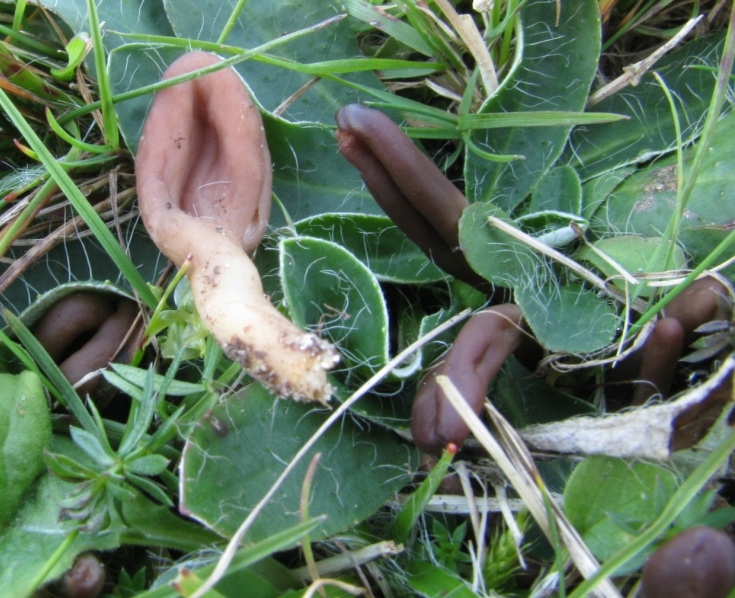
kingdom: Fungi
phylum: Ascomycota
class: Leotiomycetes
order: Leotiales
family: Leotiaceae
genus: Microglossum
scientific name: Microglossum olivaceum
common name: olivenbrun farvetunge
